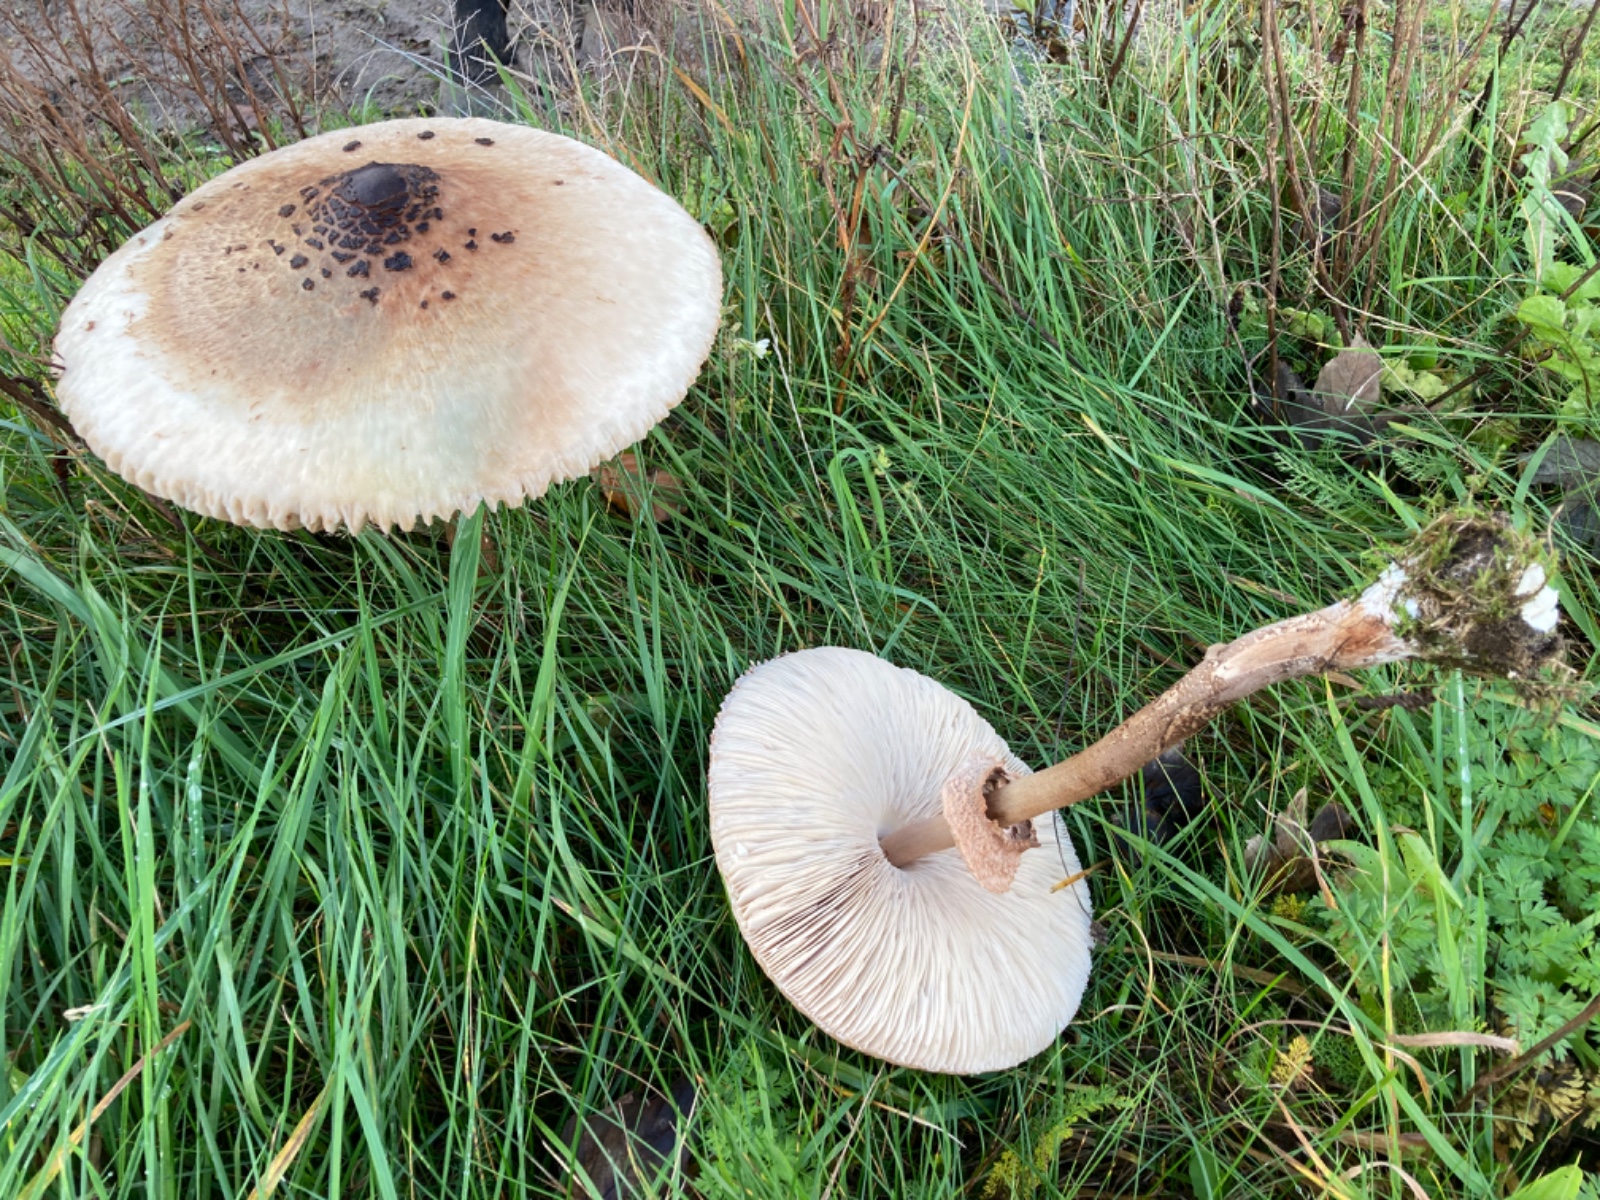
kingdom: Fungi
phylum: Basidiomycota
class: Agaricomycetes
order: Agaricales
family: Agaricaceae
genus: Macrolepiota
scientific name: Macrolepiota procera
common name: stor kæmpeparasolhat
